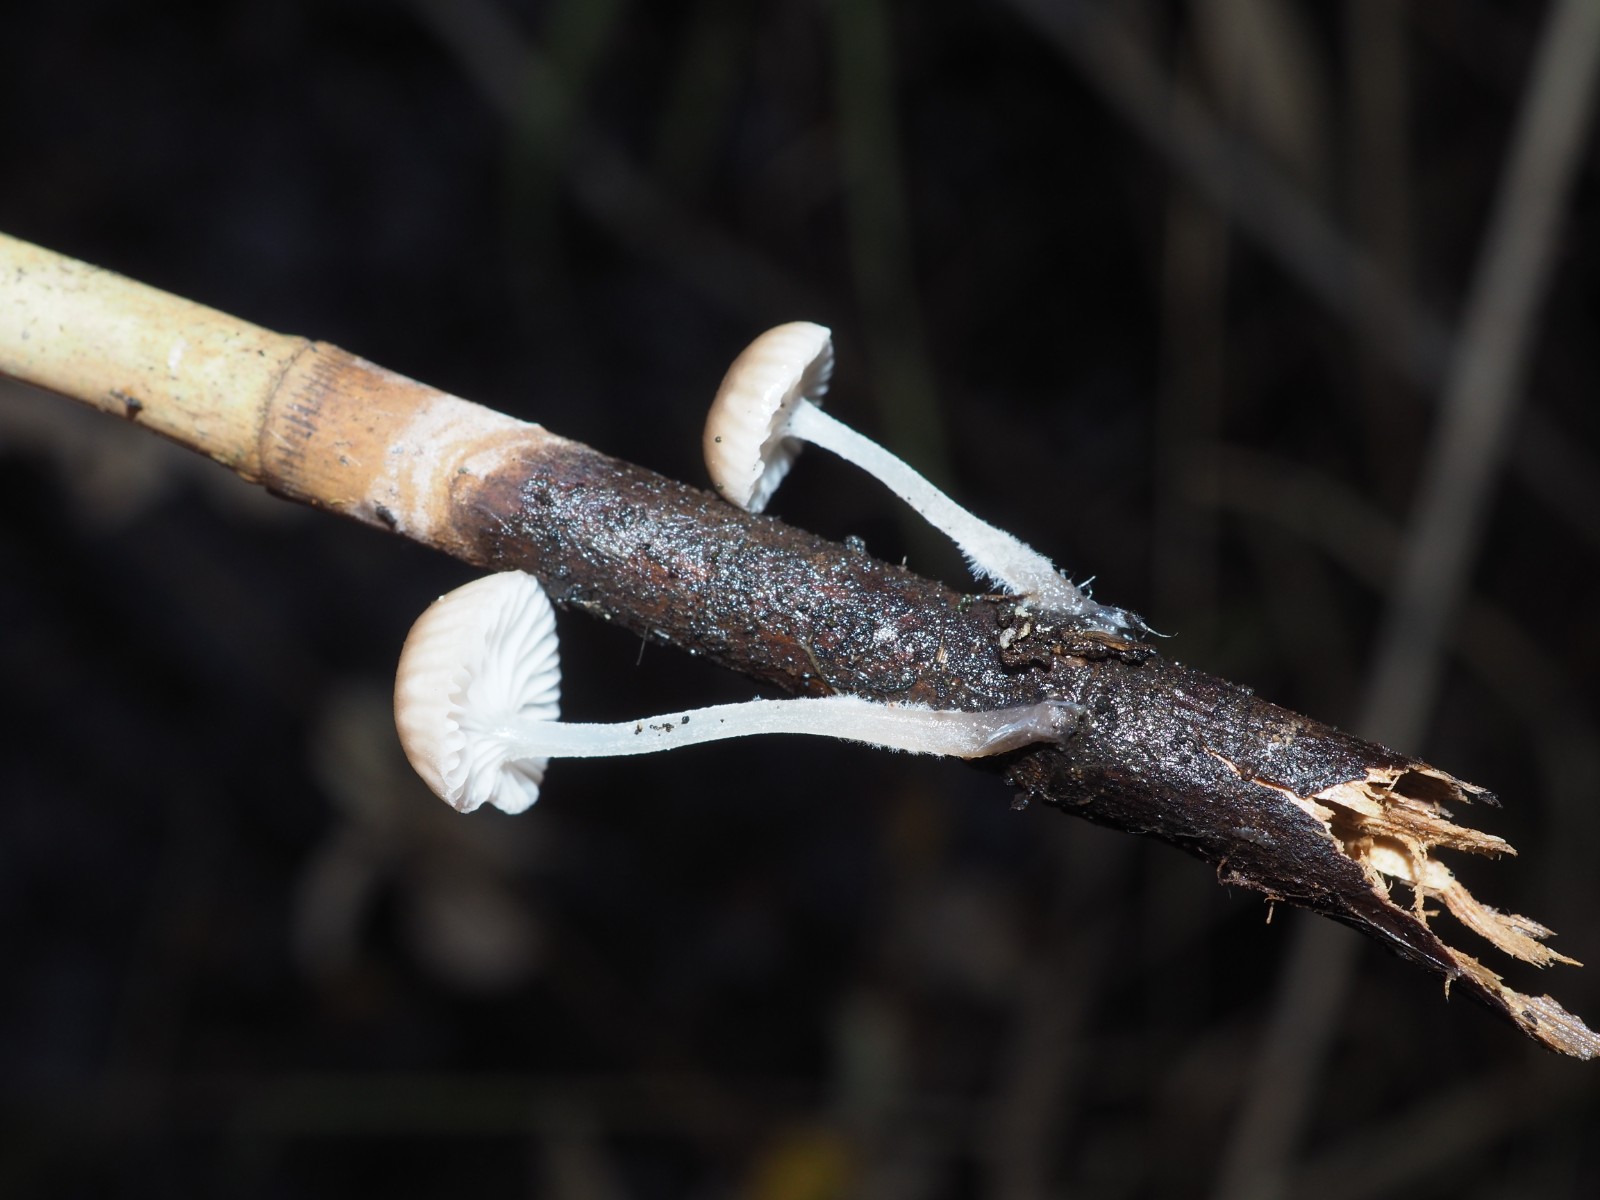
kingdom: Fungi
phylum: Basidiomycota
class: Agaricomycetes
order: Agaricales
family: Mycenaceae
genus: Mycena
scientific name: Mycena belliae
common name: tagrørs-huesvamp
